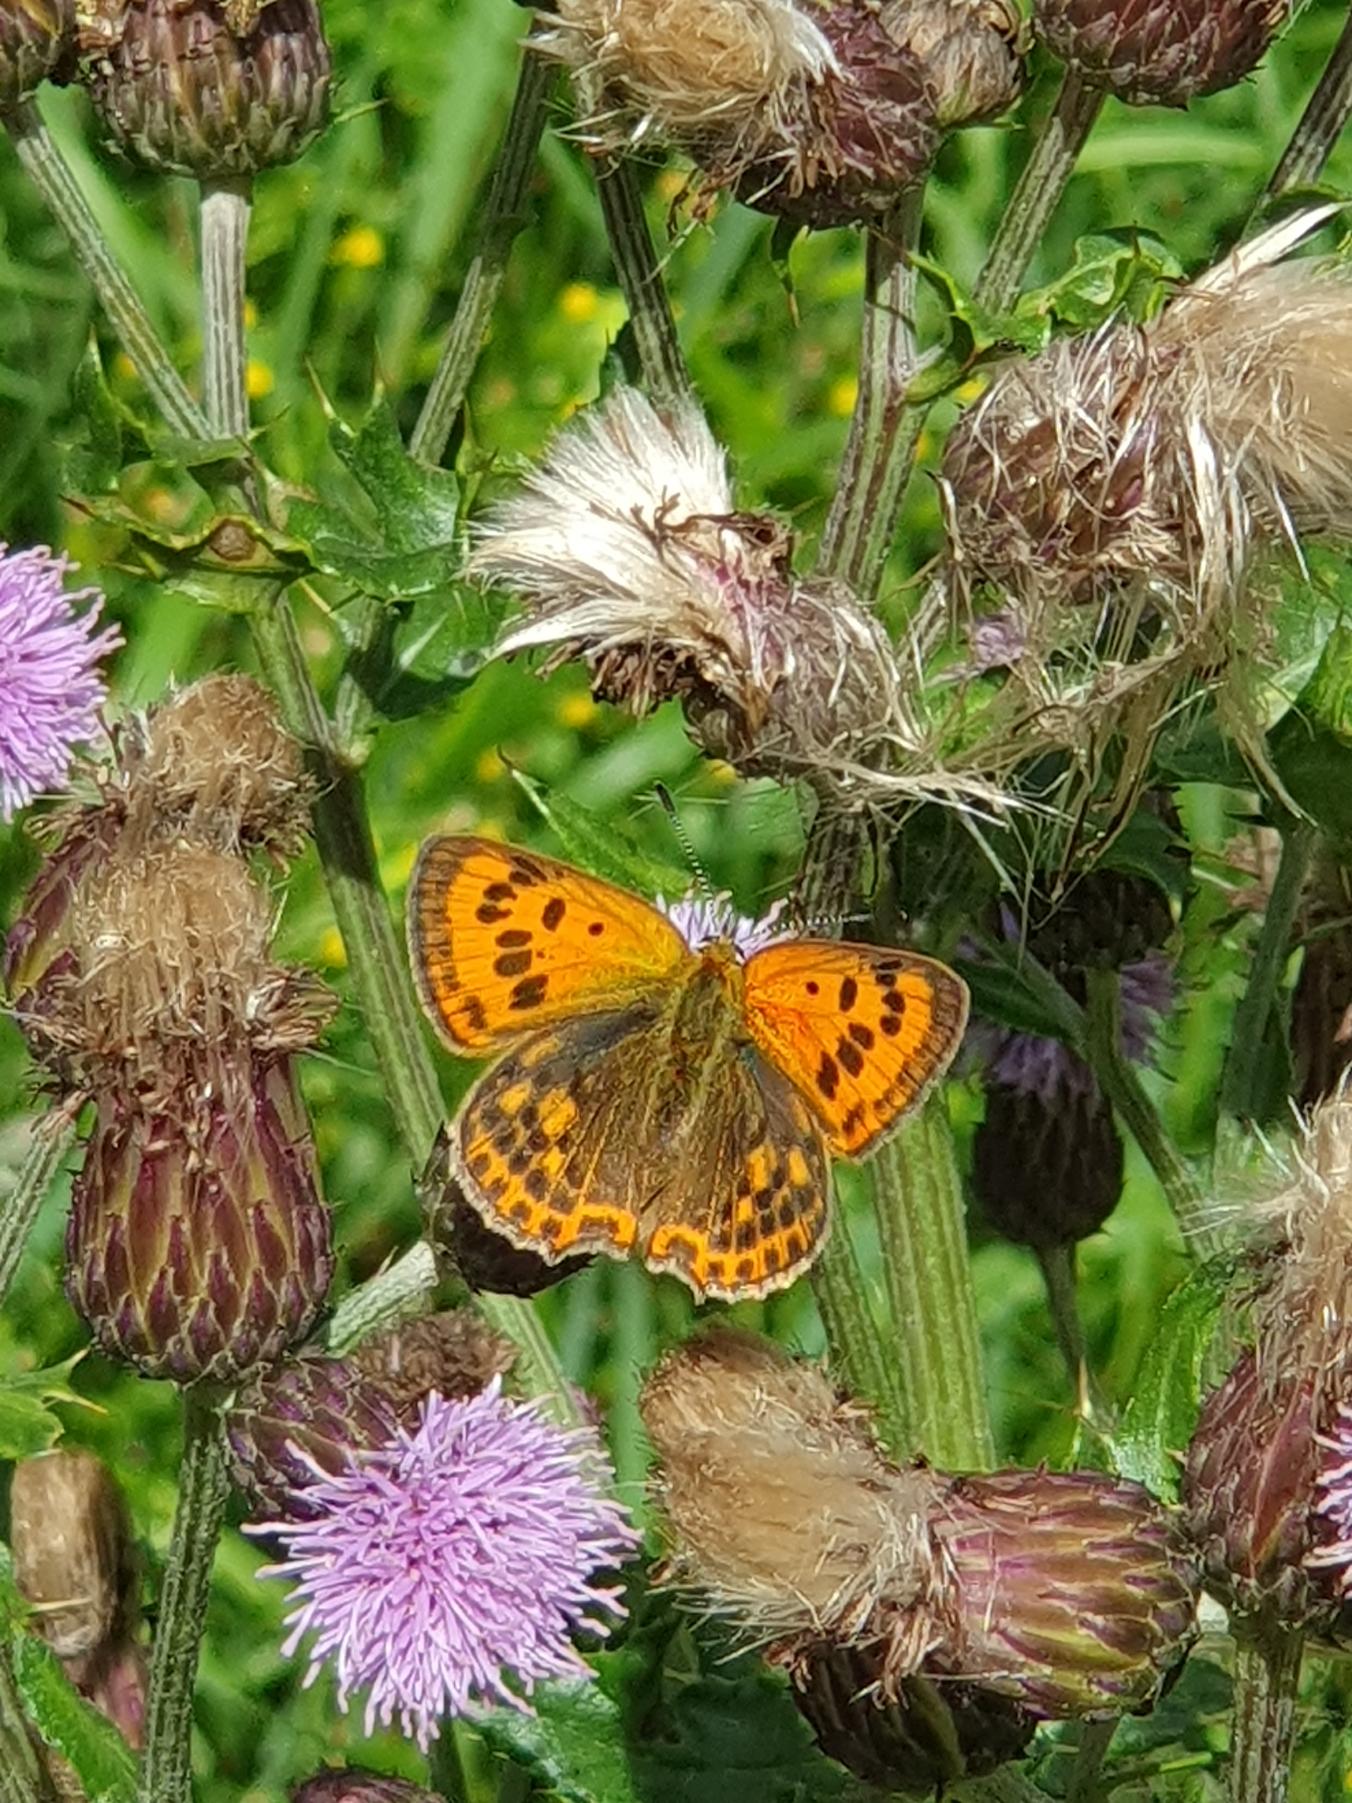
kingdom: Animalia
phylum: Arthropoda
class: Insecta
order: Lepidoptera
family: Lycaenidae
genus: Lycaena
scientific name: Lycaena virgaureae
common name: Dukatsommerfugl
